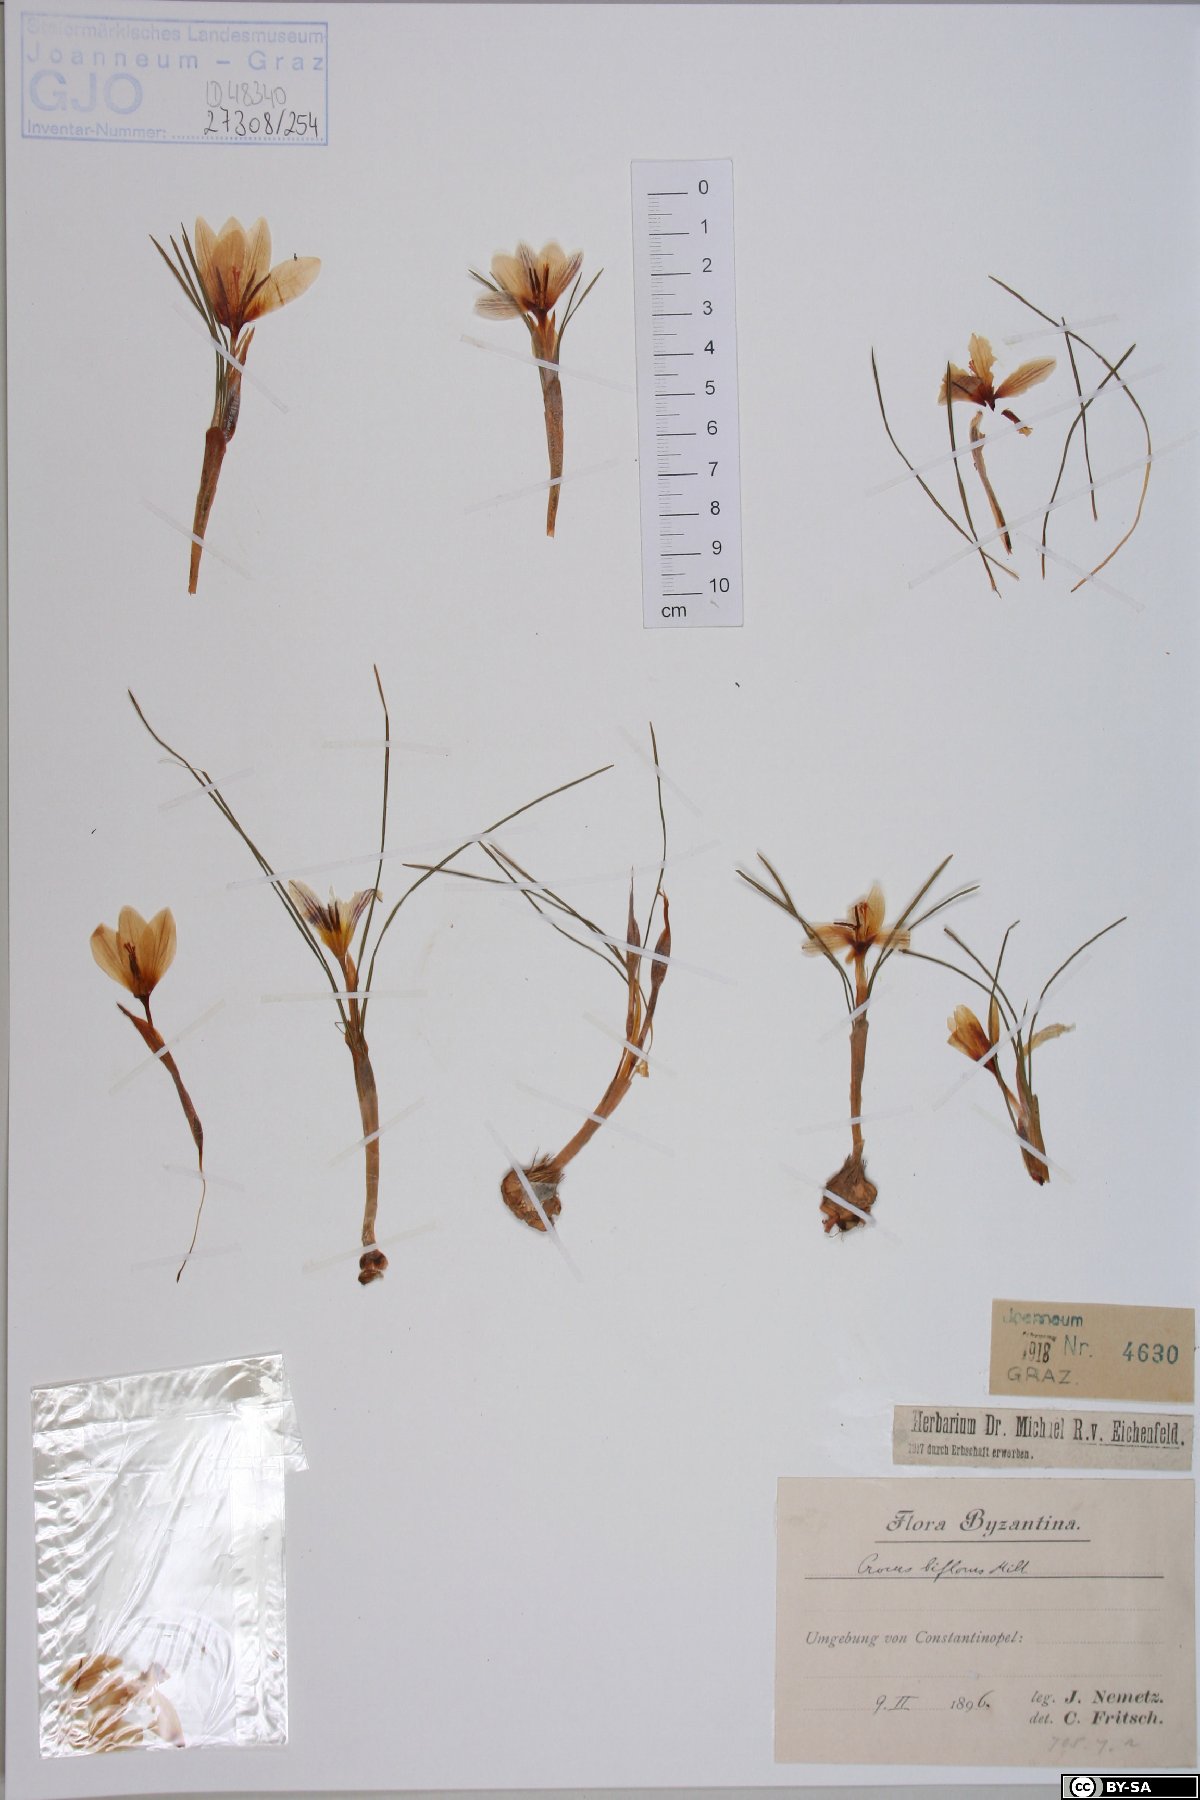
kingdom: Plantae
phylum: Tracheophyta
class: Liliopsida
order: Asparagales
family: Iridaceae
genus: Crocus
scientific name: Crocus biflorus
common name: Silvery crocus
